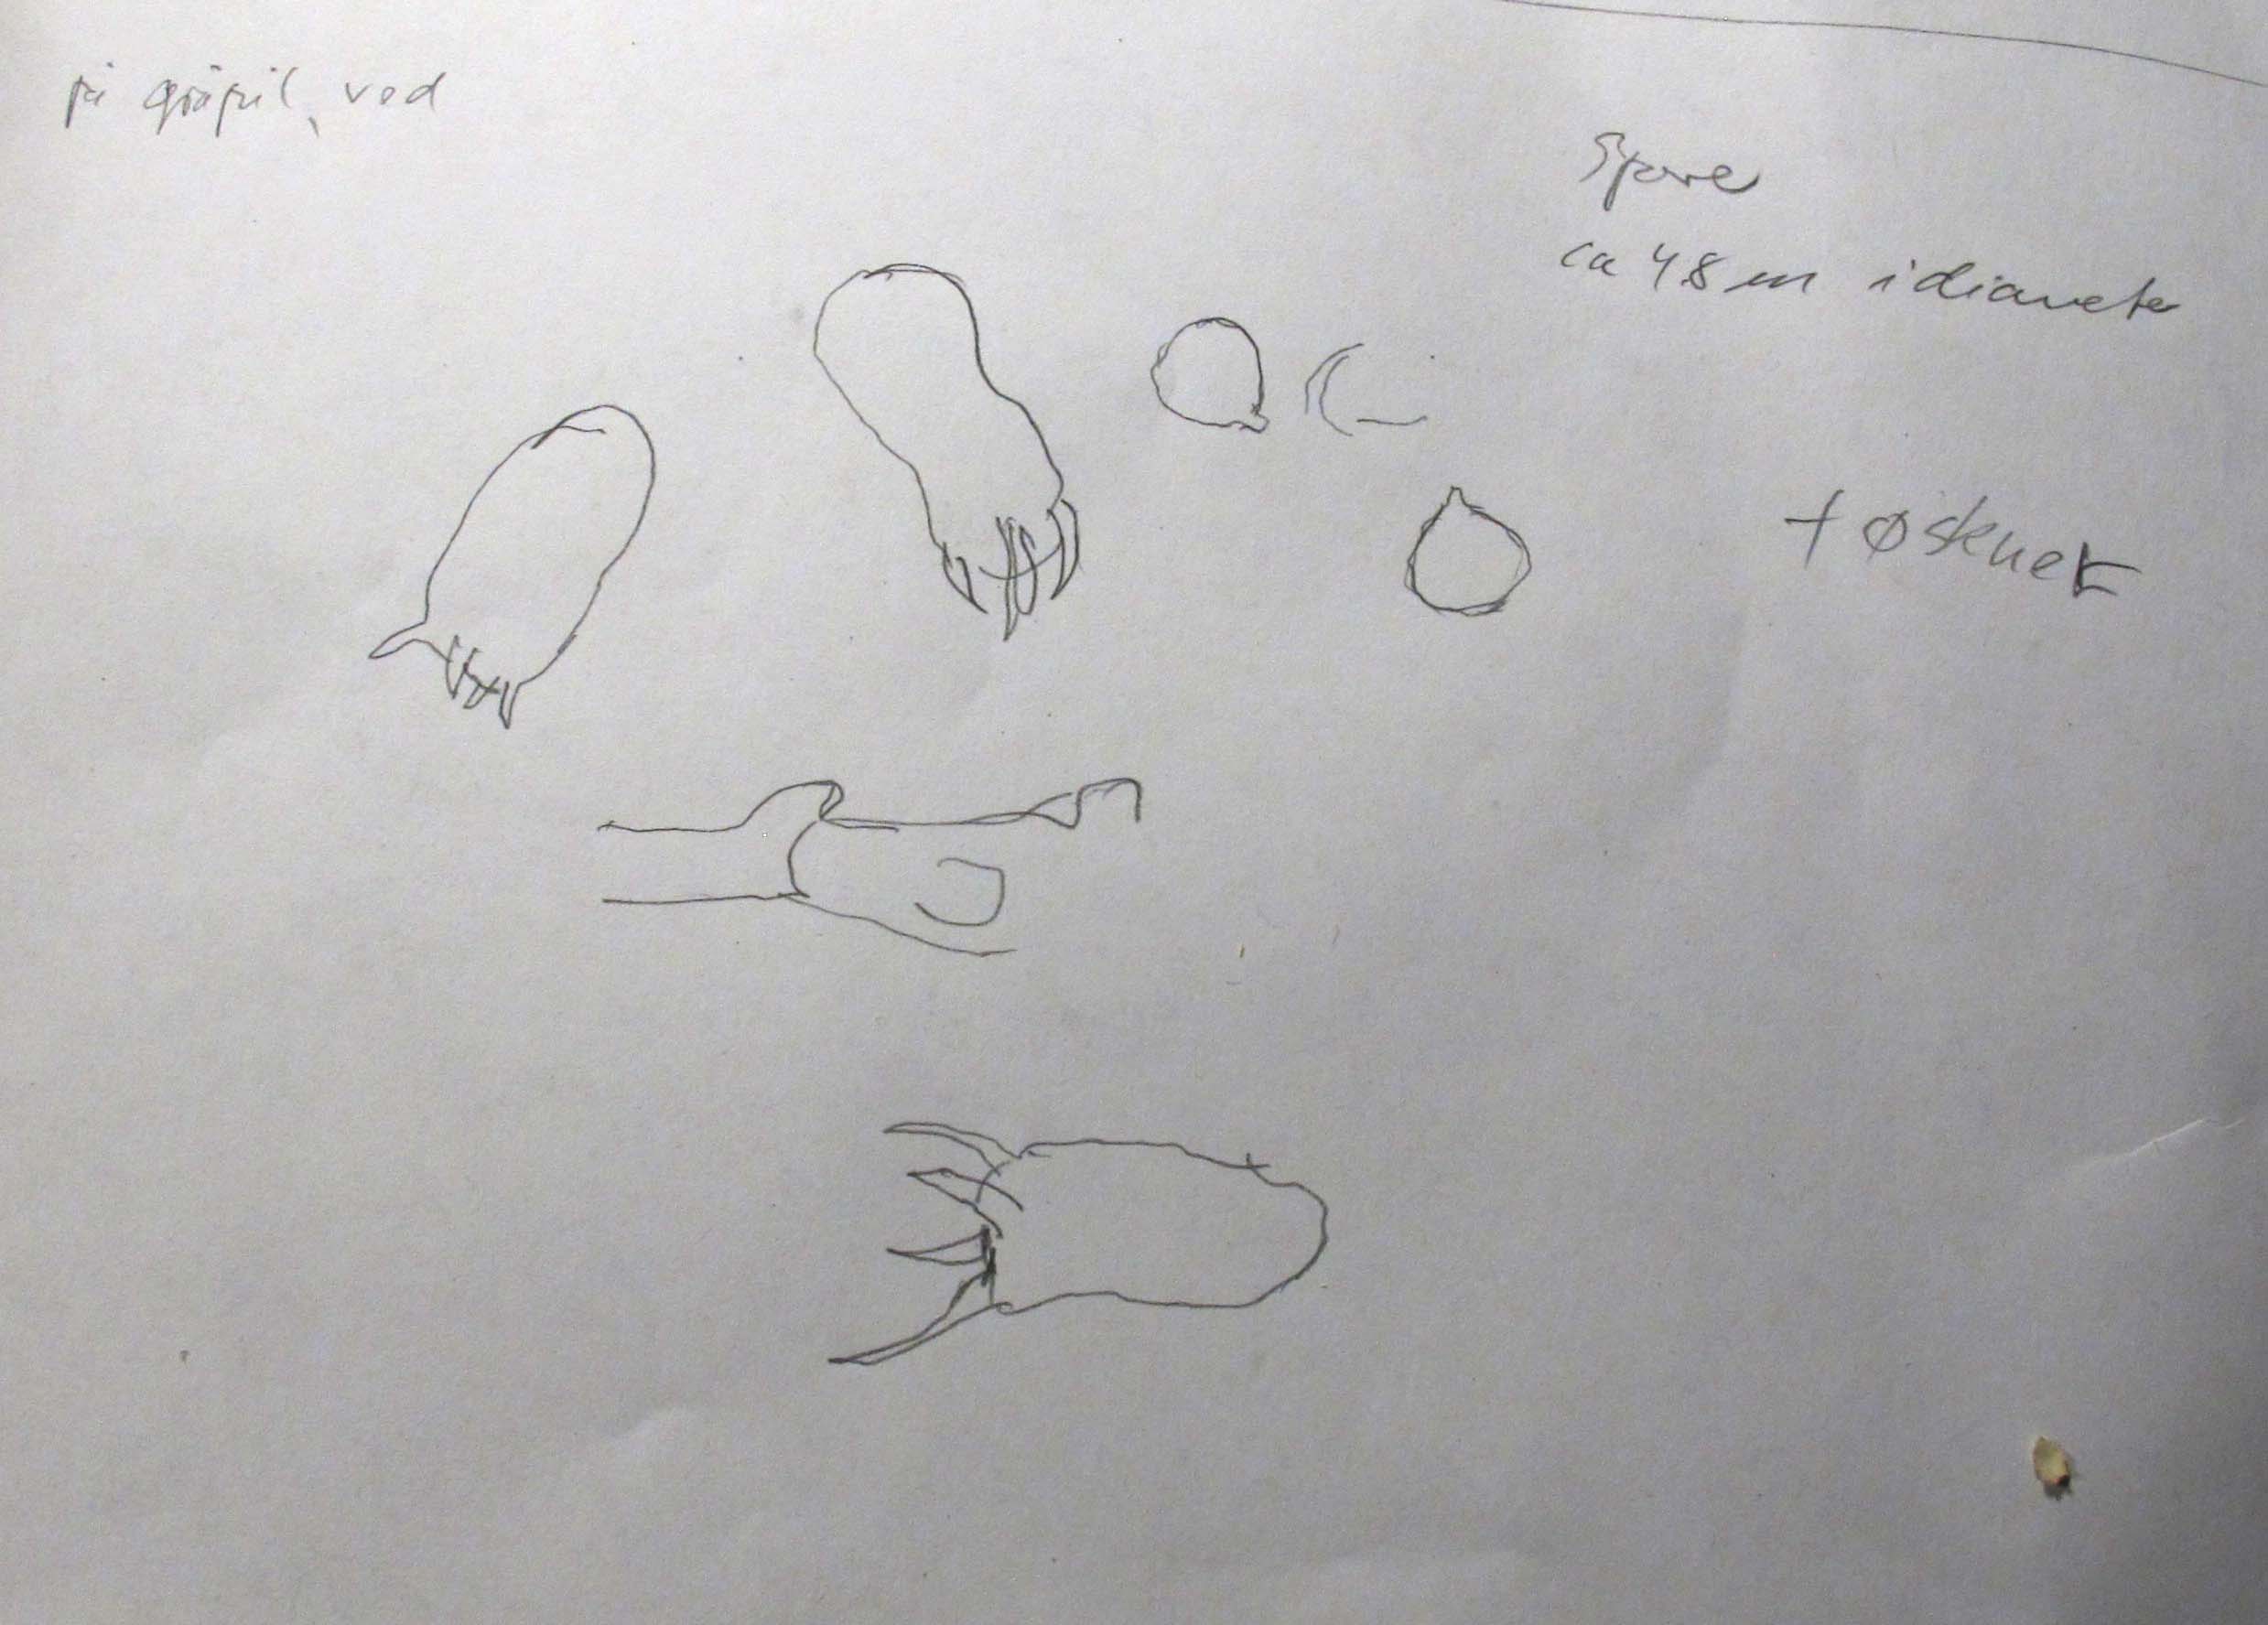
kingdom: Fungi
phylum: Basidiomycota
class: Agaricomycetes
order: Trechisporales
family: Hydnodontaceae
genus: Brevicellicium
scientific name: Brevicellicium olivascens
